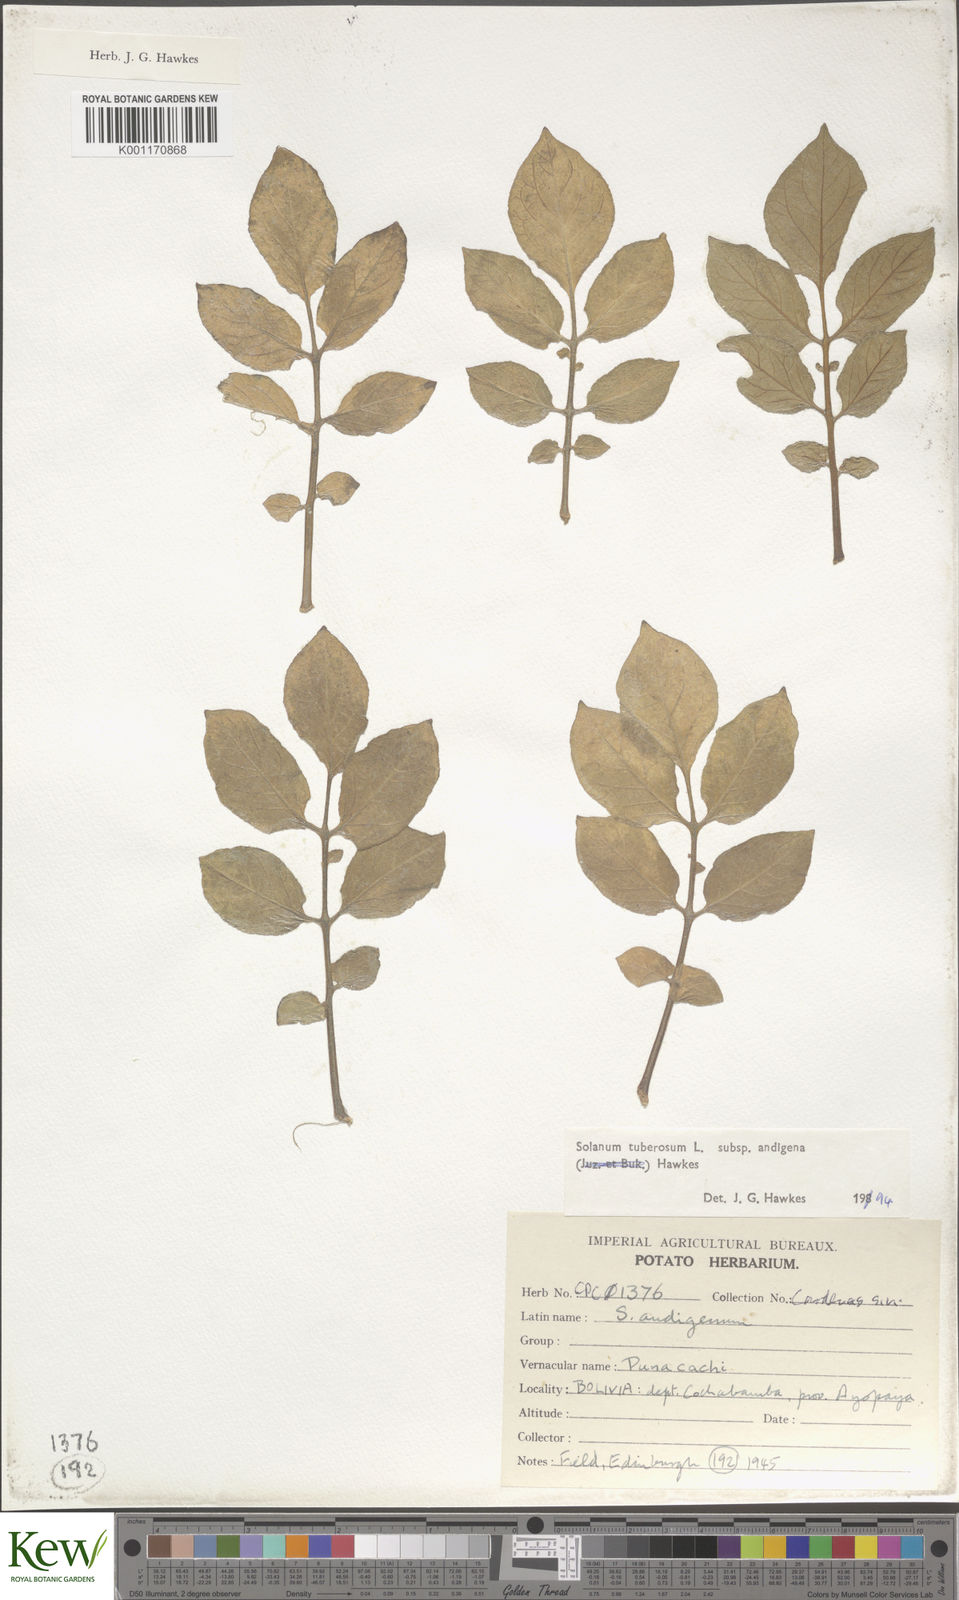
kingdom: Plantae
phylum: Tracheophyta
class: Magnoliopsida
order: Solanales
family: Solanaceae
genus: Solanum
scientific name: Solanum tuberosum
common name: Potato
